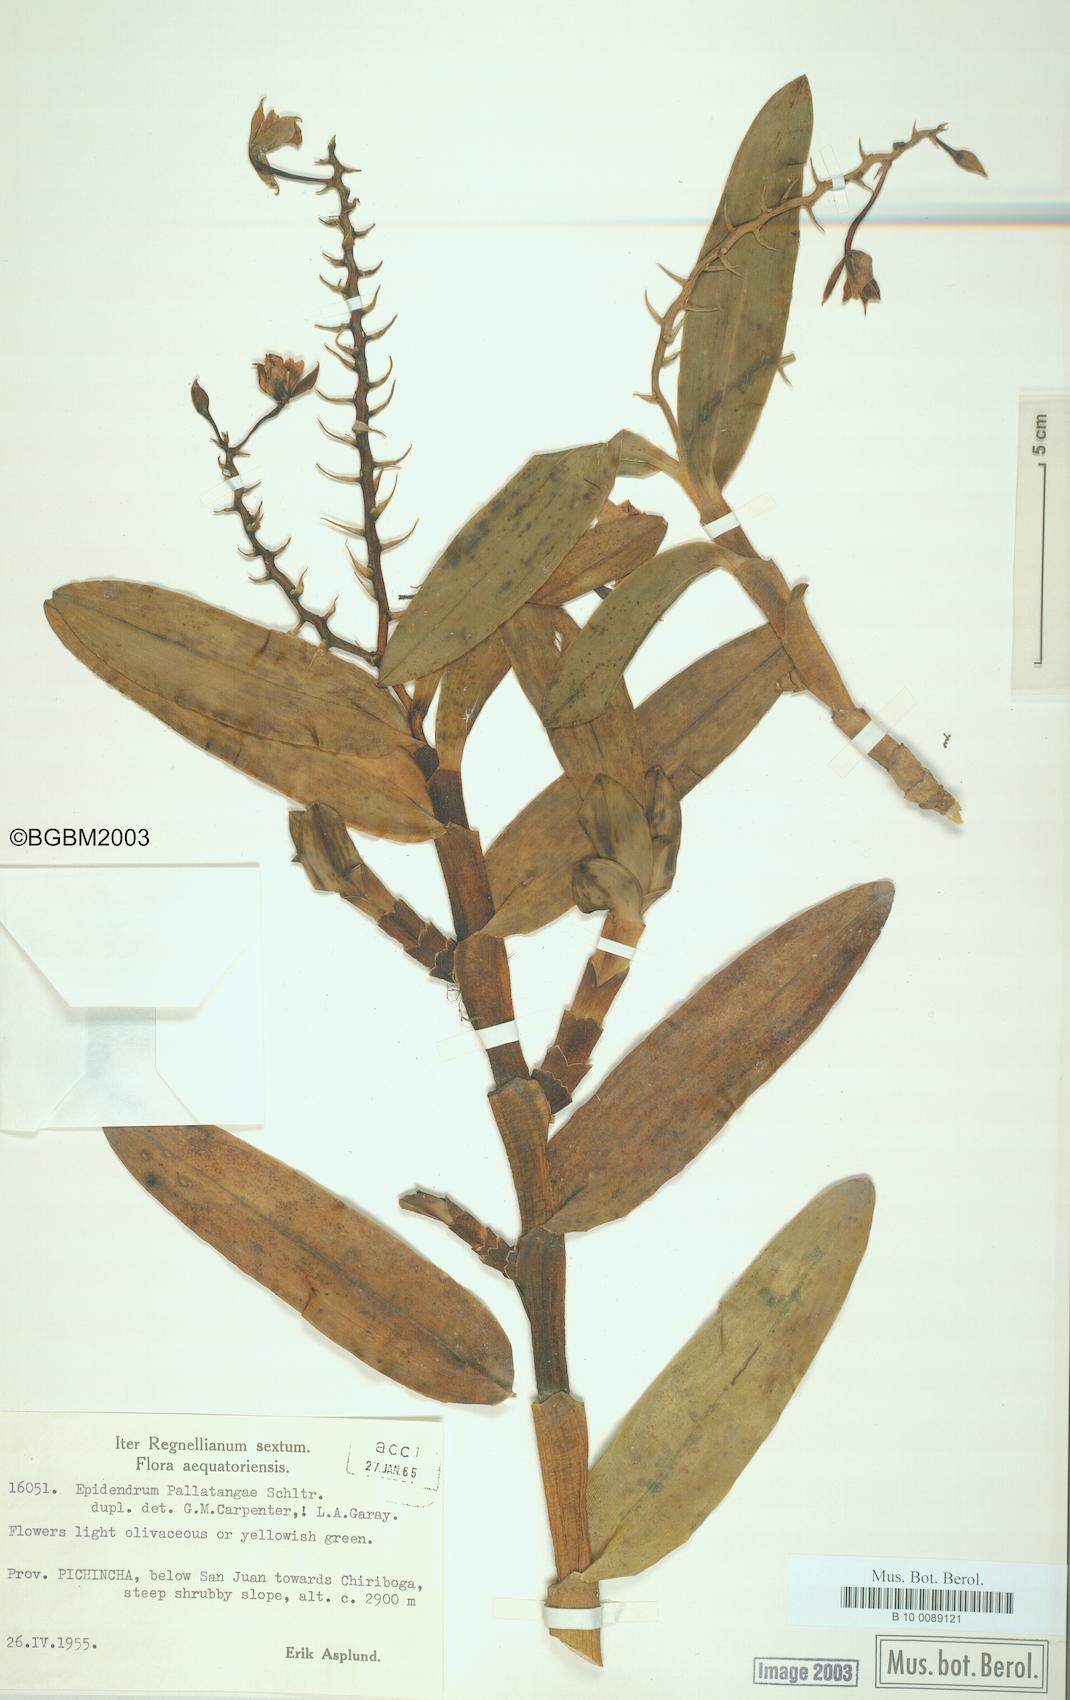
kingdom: Plantae
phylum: Tracheophyta
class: Liliopsida
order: Asparagales
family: Orchidaceae
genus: Epidendrum
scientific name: Epidendrum pallatangae
